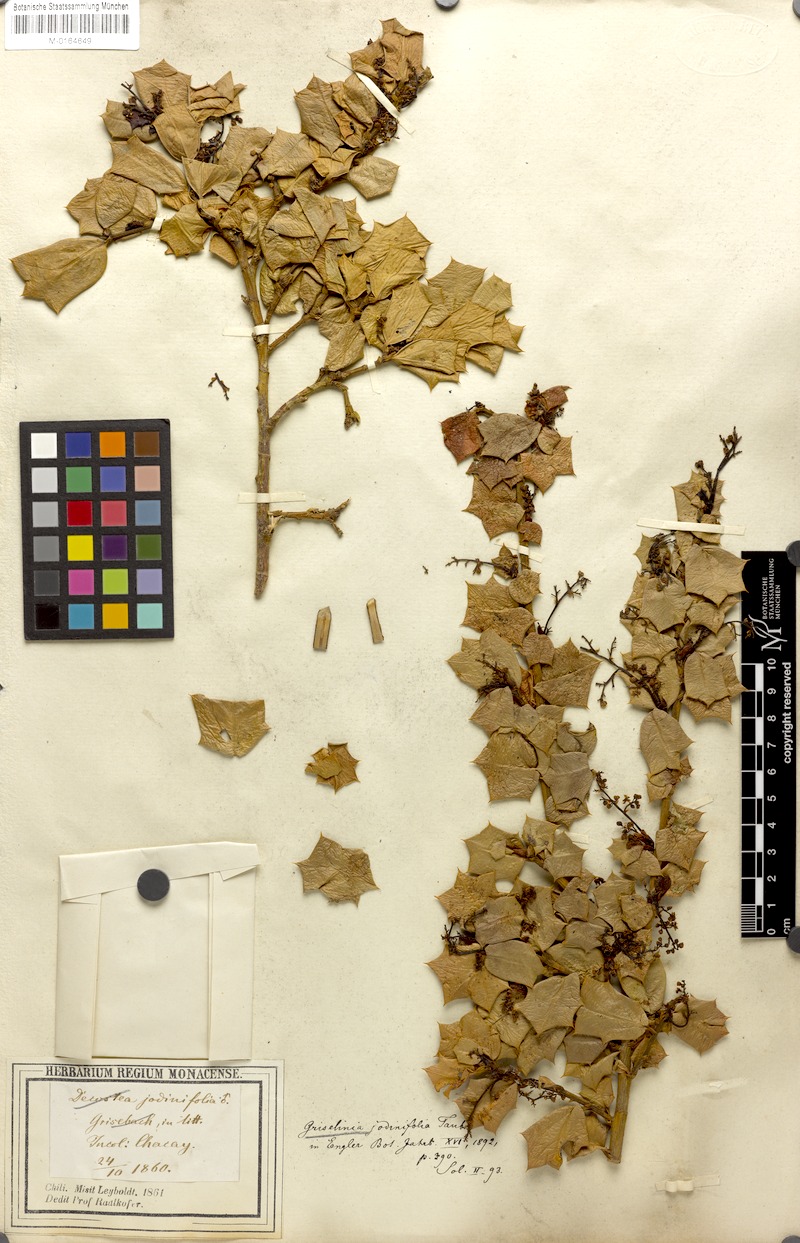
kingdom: Plantae
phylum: Tracheophyta
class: Magnoliopsida
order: Apiales
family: Griseliniaceae
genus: Griselinia
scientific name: Griselinia jodinifolia
